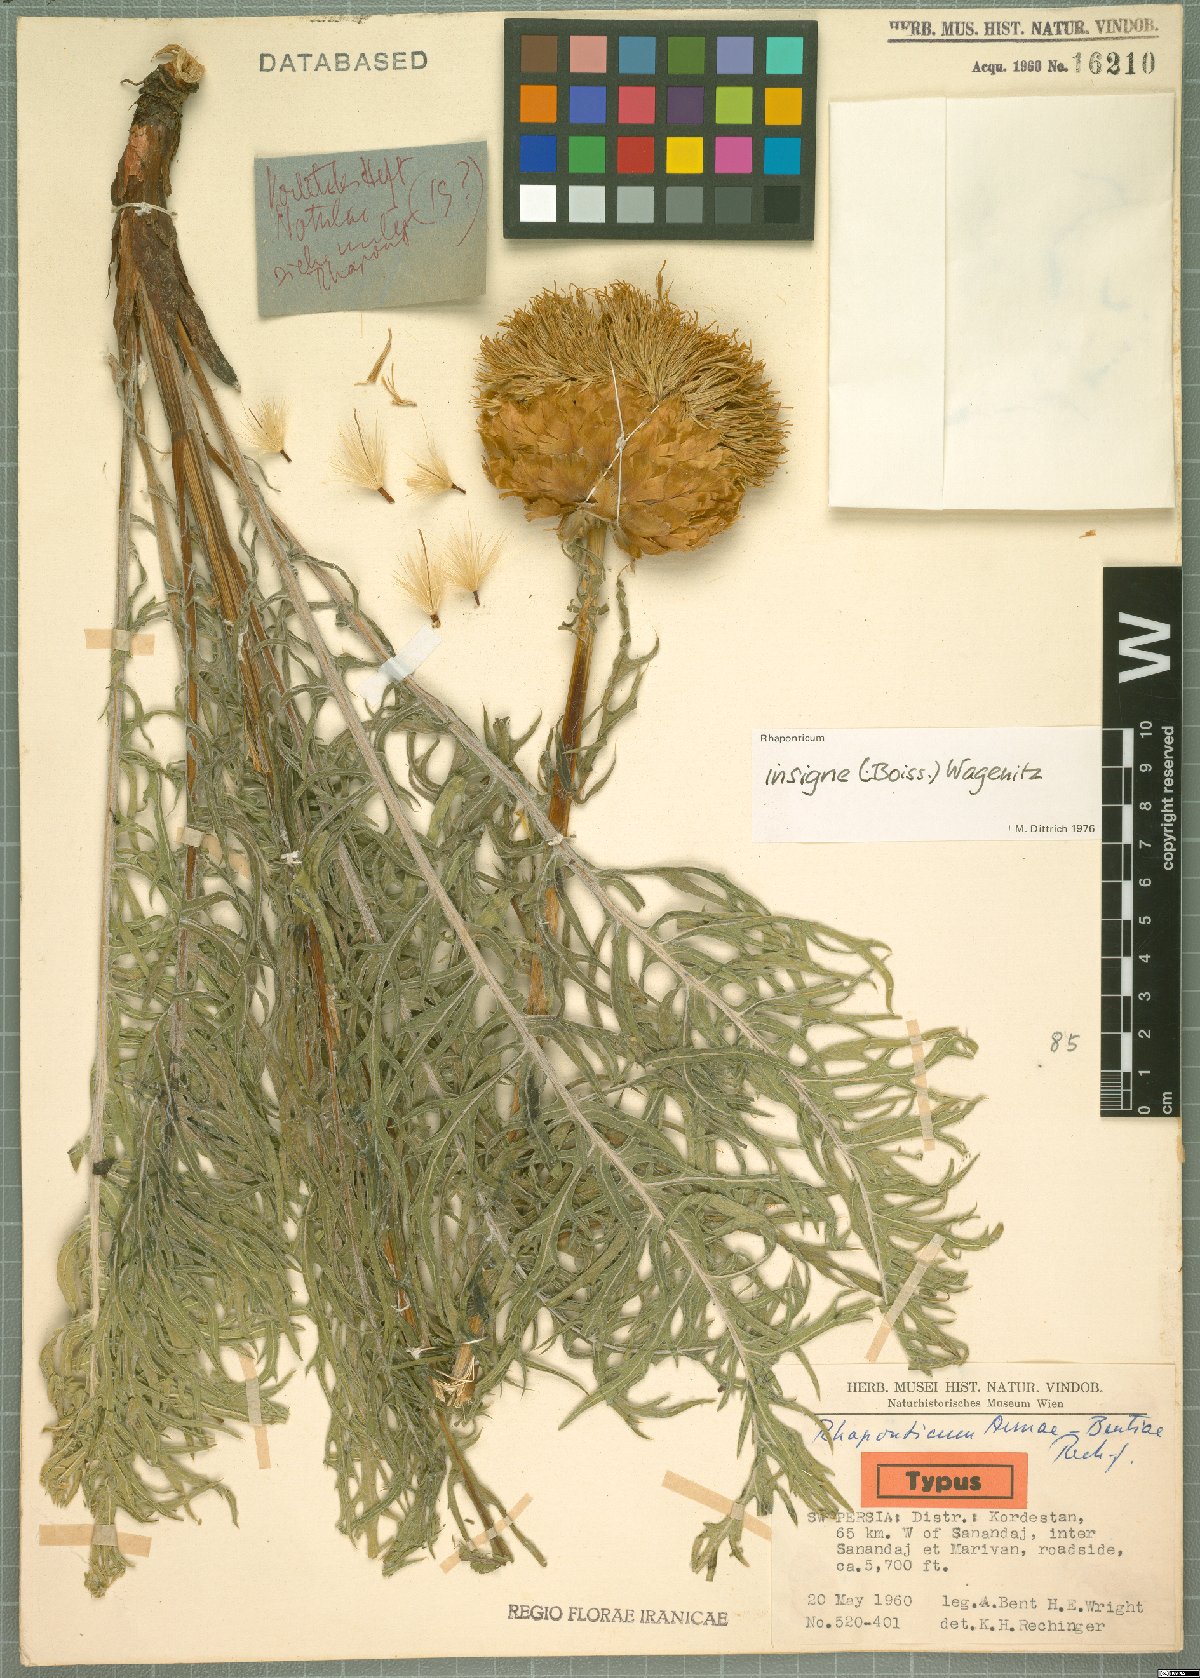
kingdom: Plantae
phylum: Tracheophyta
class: Magnoliopsida
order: Asterales
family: Asteraceae
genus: Leuzea
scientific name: Leuzea insignis
